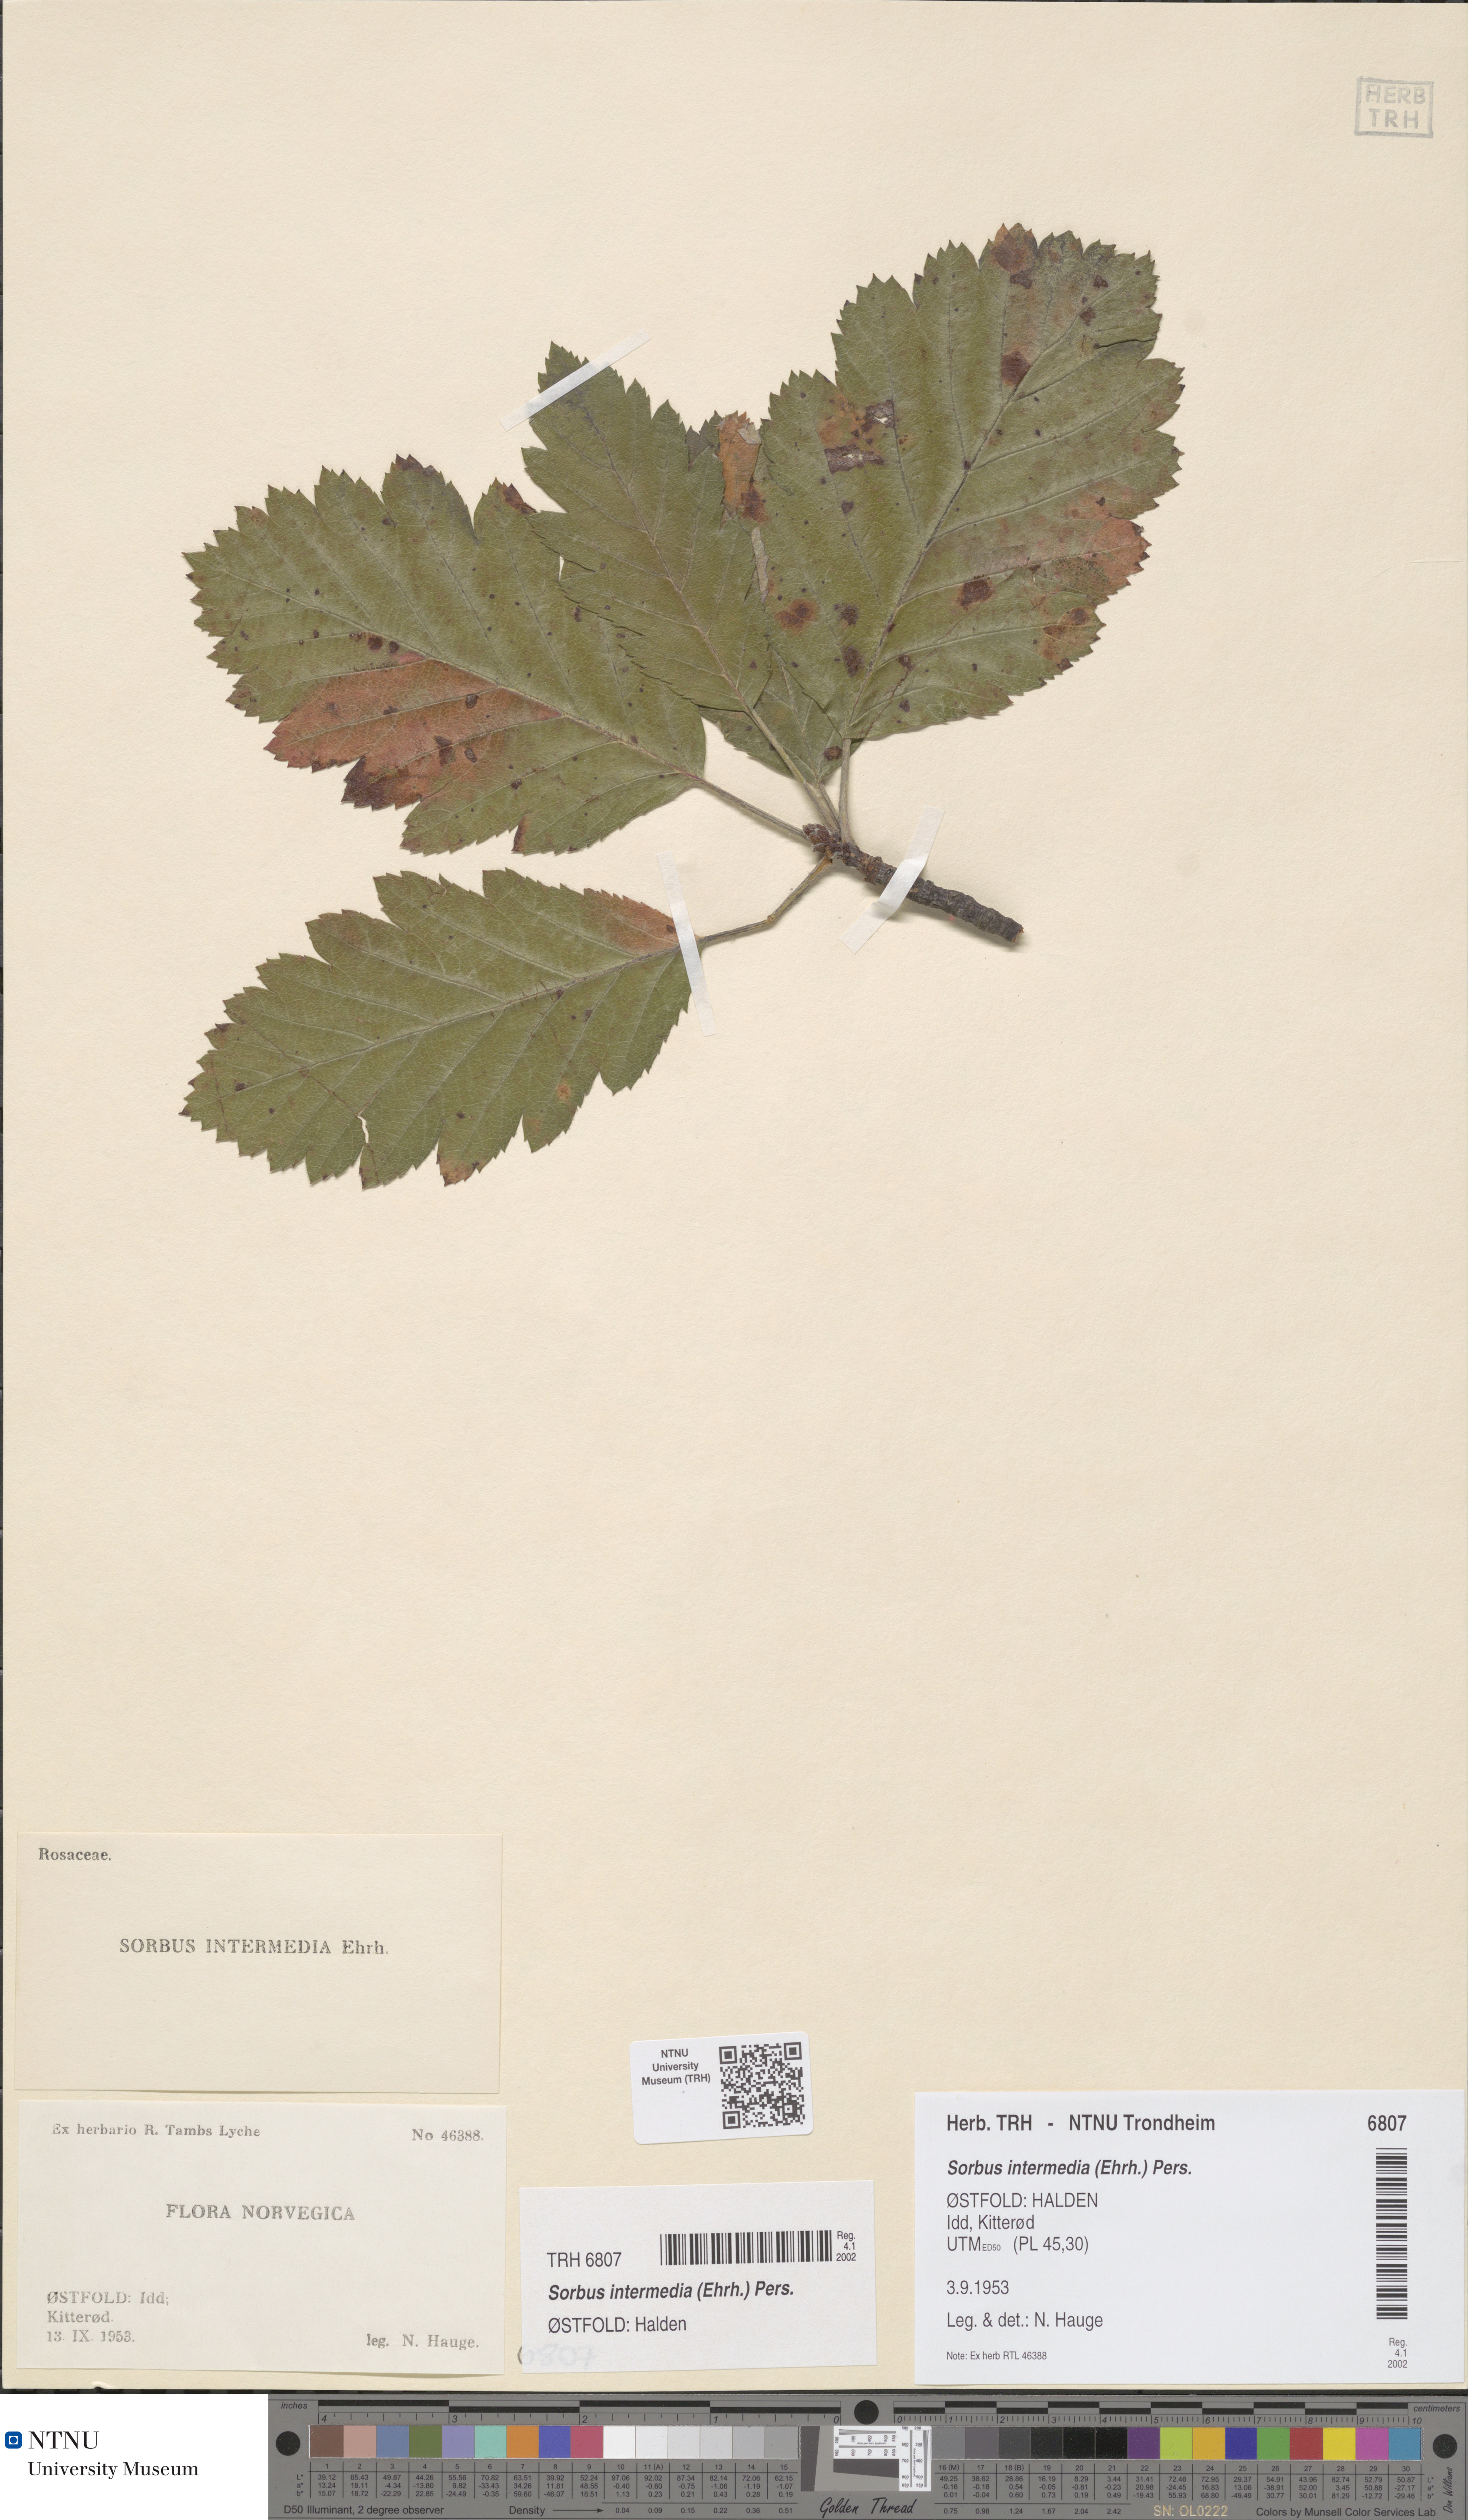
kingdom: Plantae
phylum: Tracheophyta
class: Magnoliopsida
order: Rosales
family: Rosaceae
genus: Scandosorbus
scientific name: Scandosorbus intermedia
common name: Swedish whitebeam
